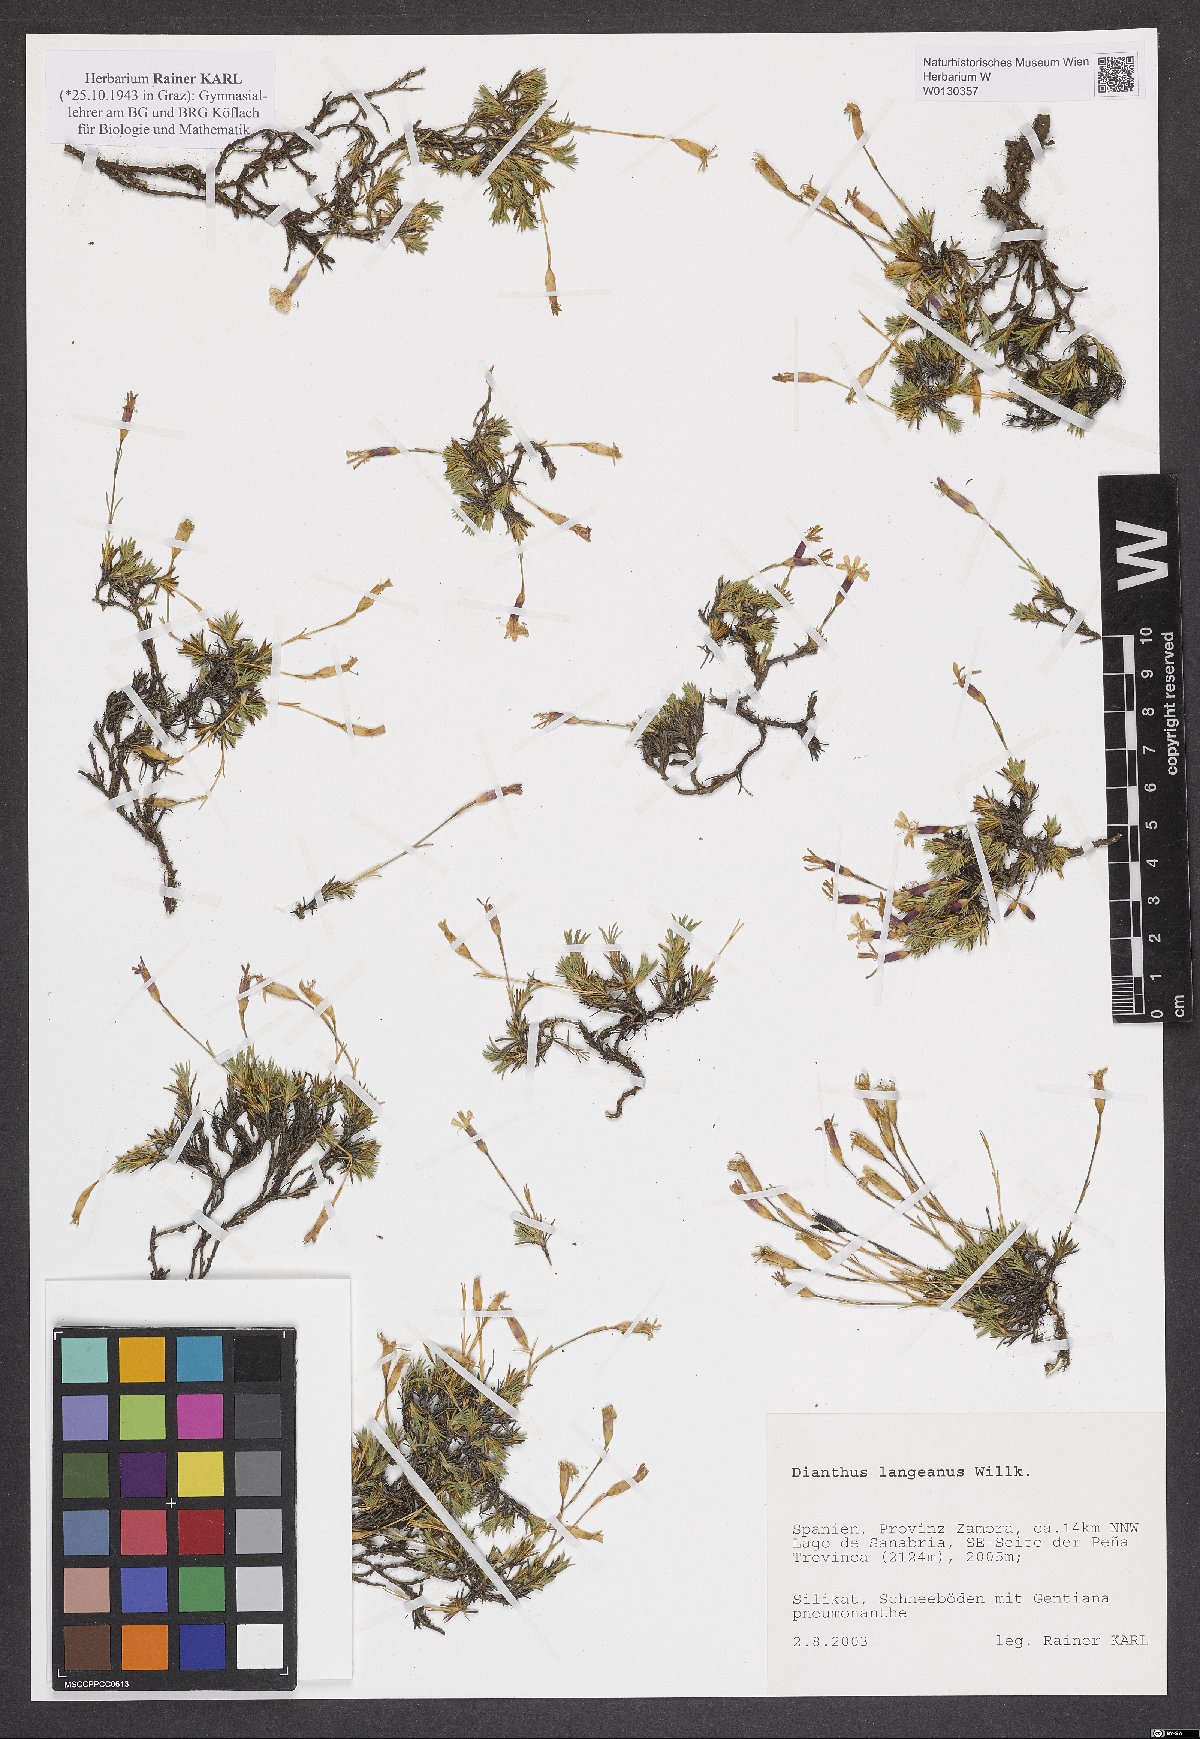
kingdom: Plantae
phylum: Tracheophyta
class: Magnoliopsida
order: Caryophyllales
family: Caryophyllaceae
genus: Dianthus
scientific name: Dianthus langeanus
